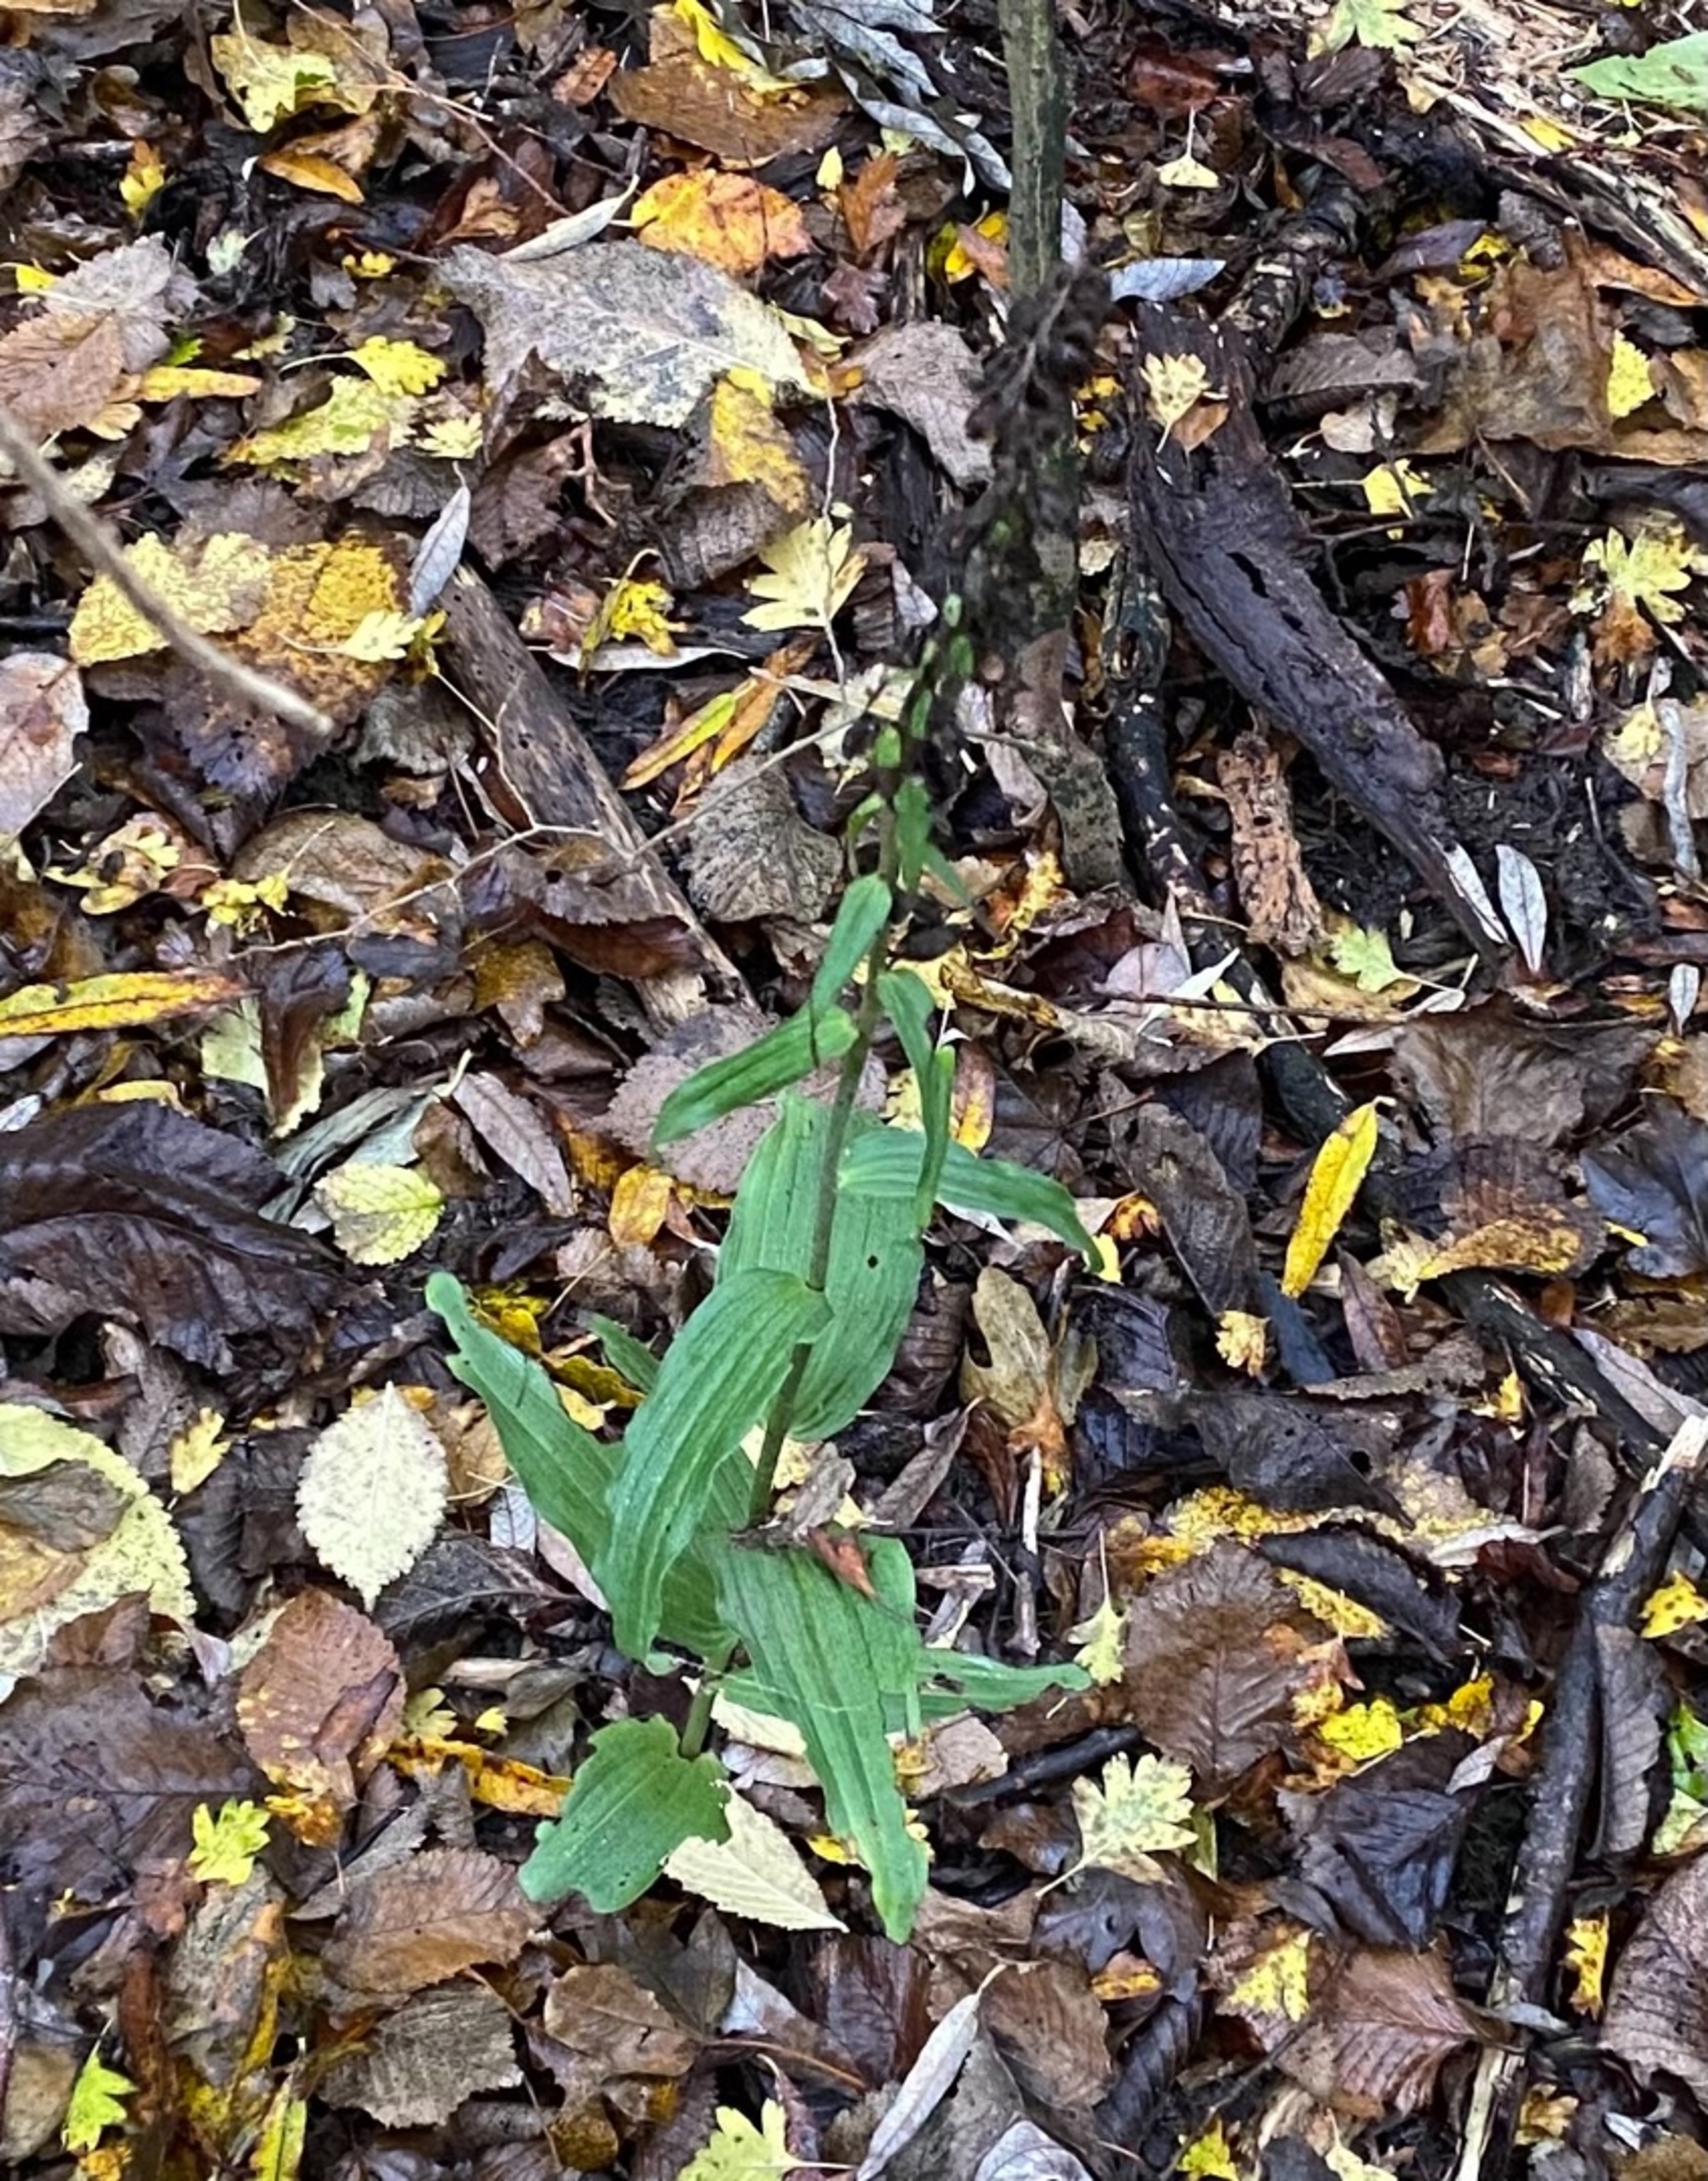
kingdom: Plantae
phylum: Tracheophyta
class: Liliopsida
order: Asparagales
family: Orchidaceae
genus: Epipactis
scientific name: Epipactis helleborine
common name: Skov-hullæbe
